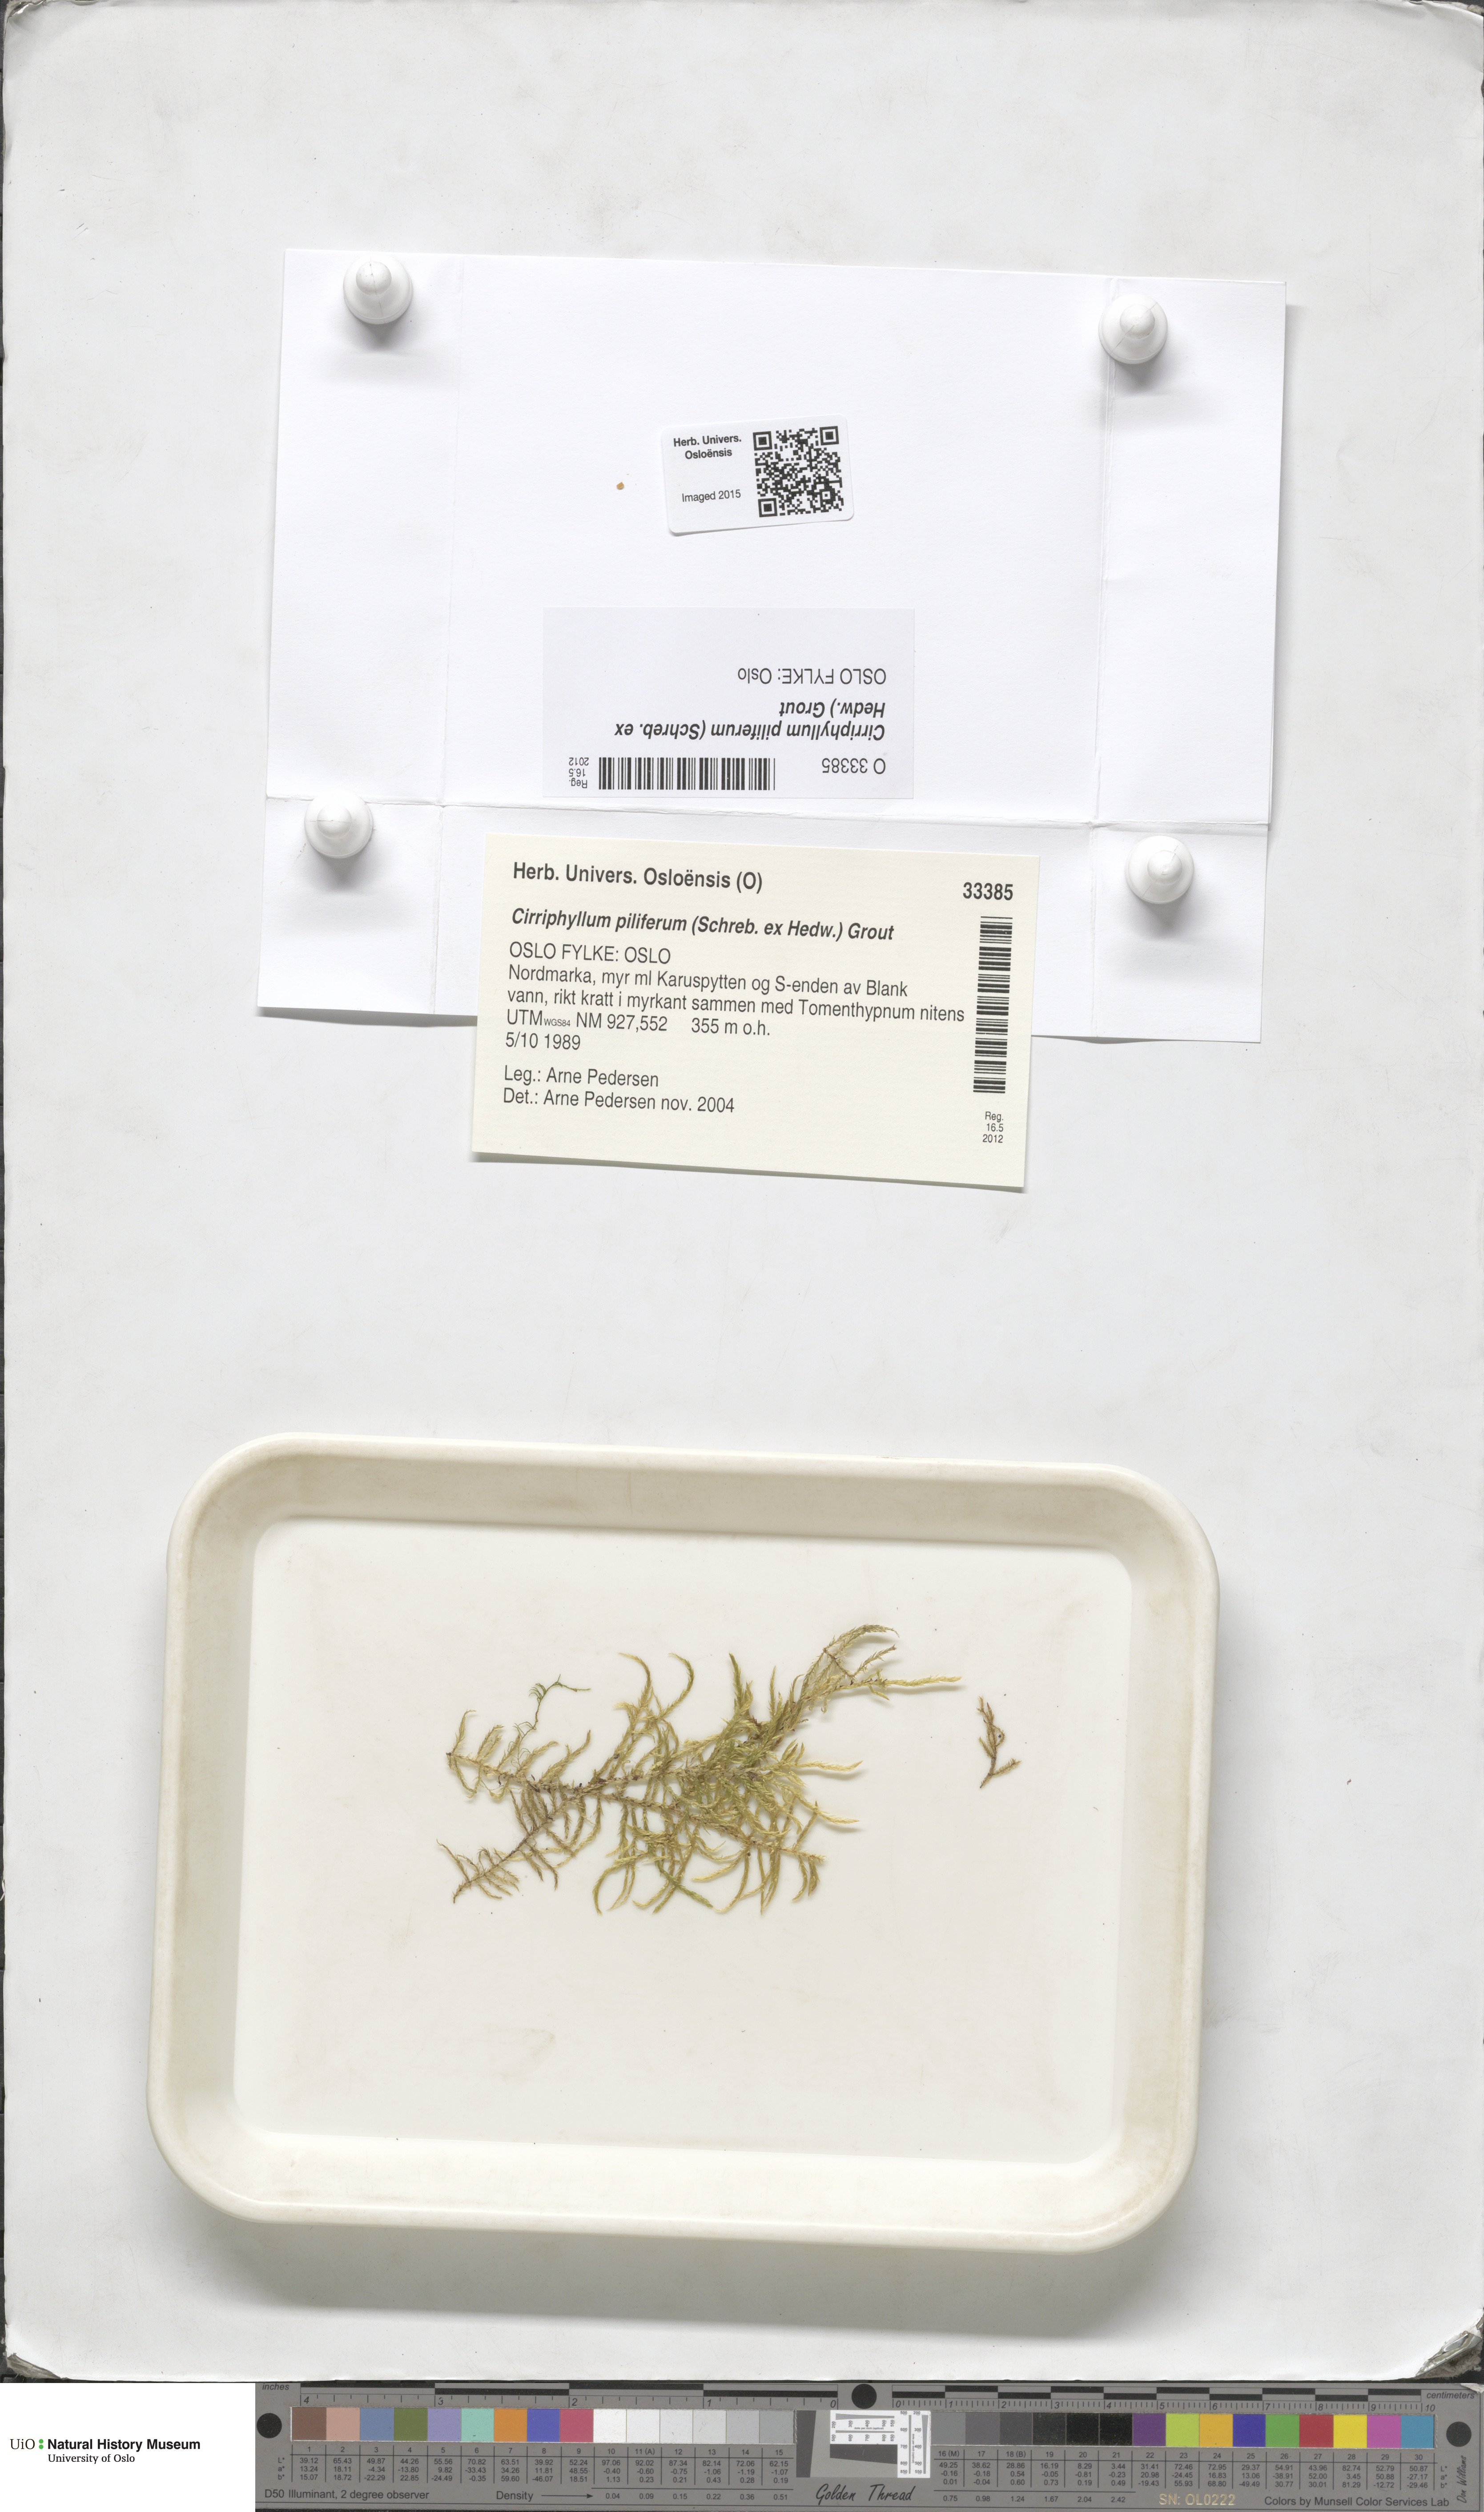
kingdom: Plantae
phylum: Bryophyta
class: Bryopsida
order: Hypnales
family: Brachytheciaceae
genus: Cirriphyllum
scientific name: Cirriphyllum piliferum
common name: Hair-pointed moss
